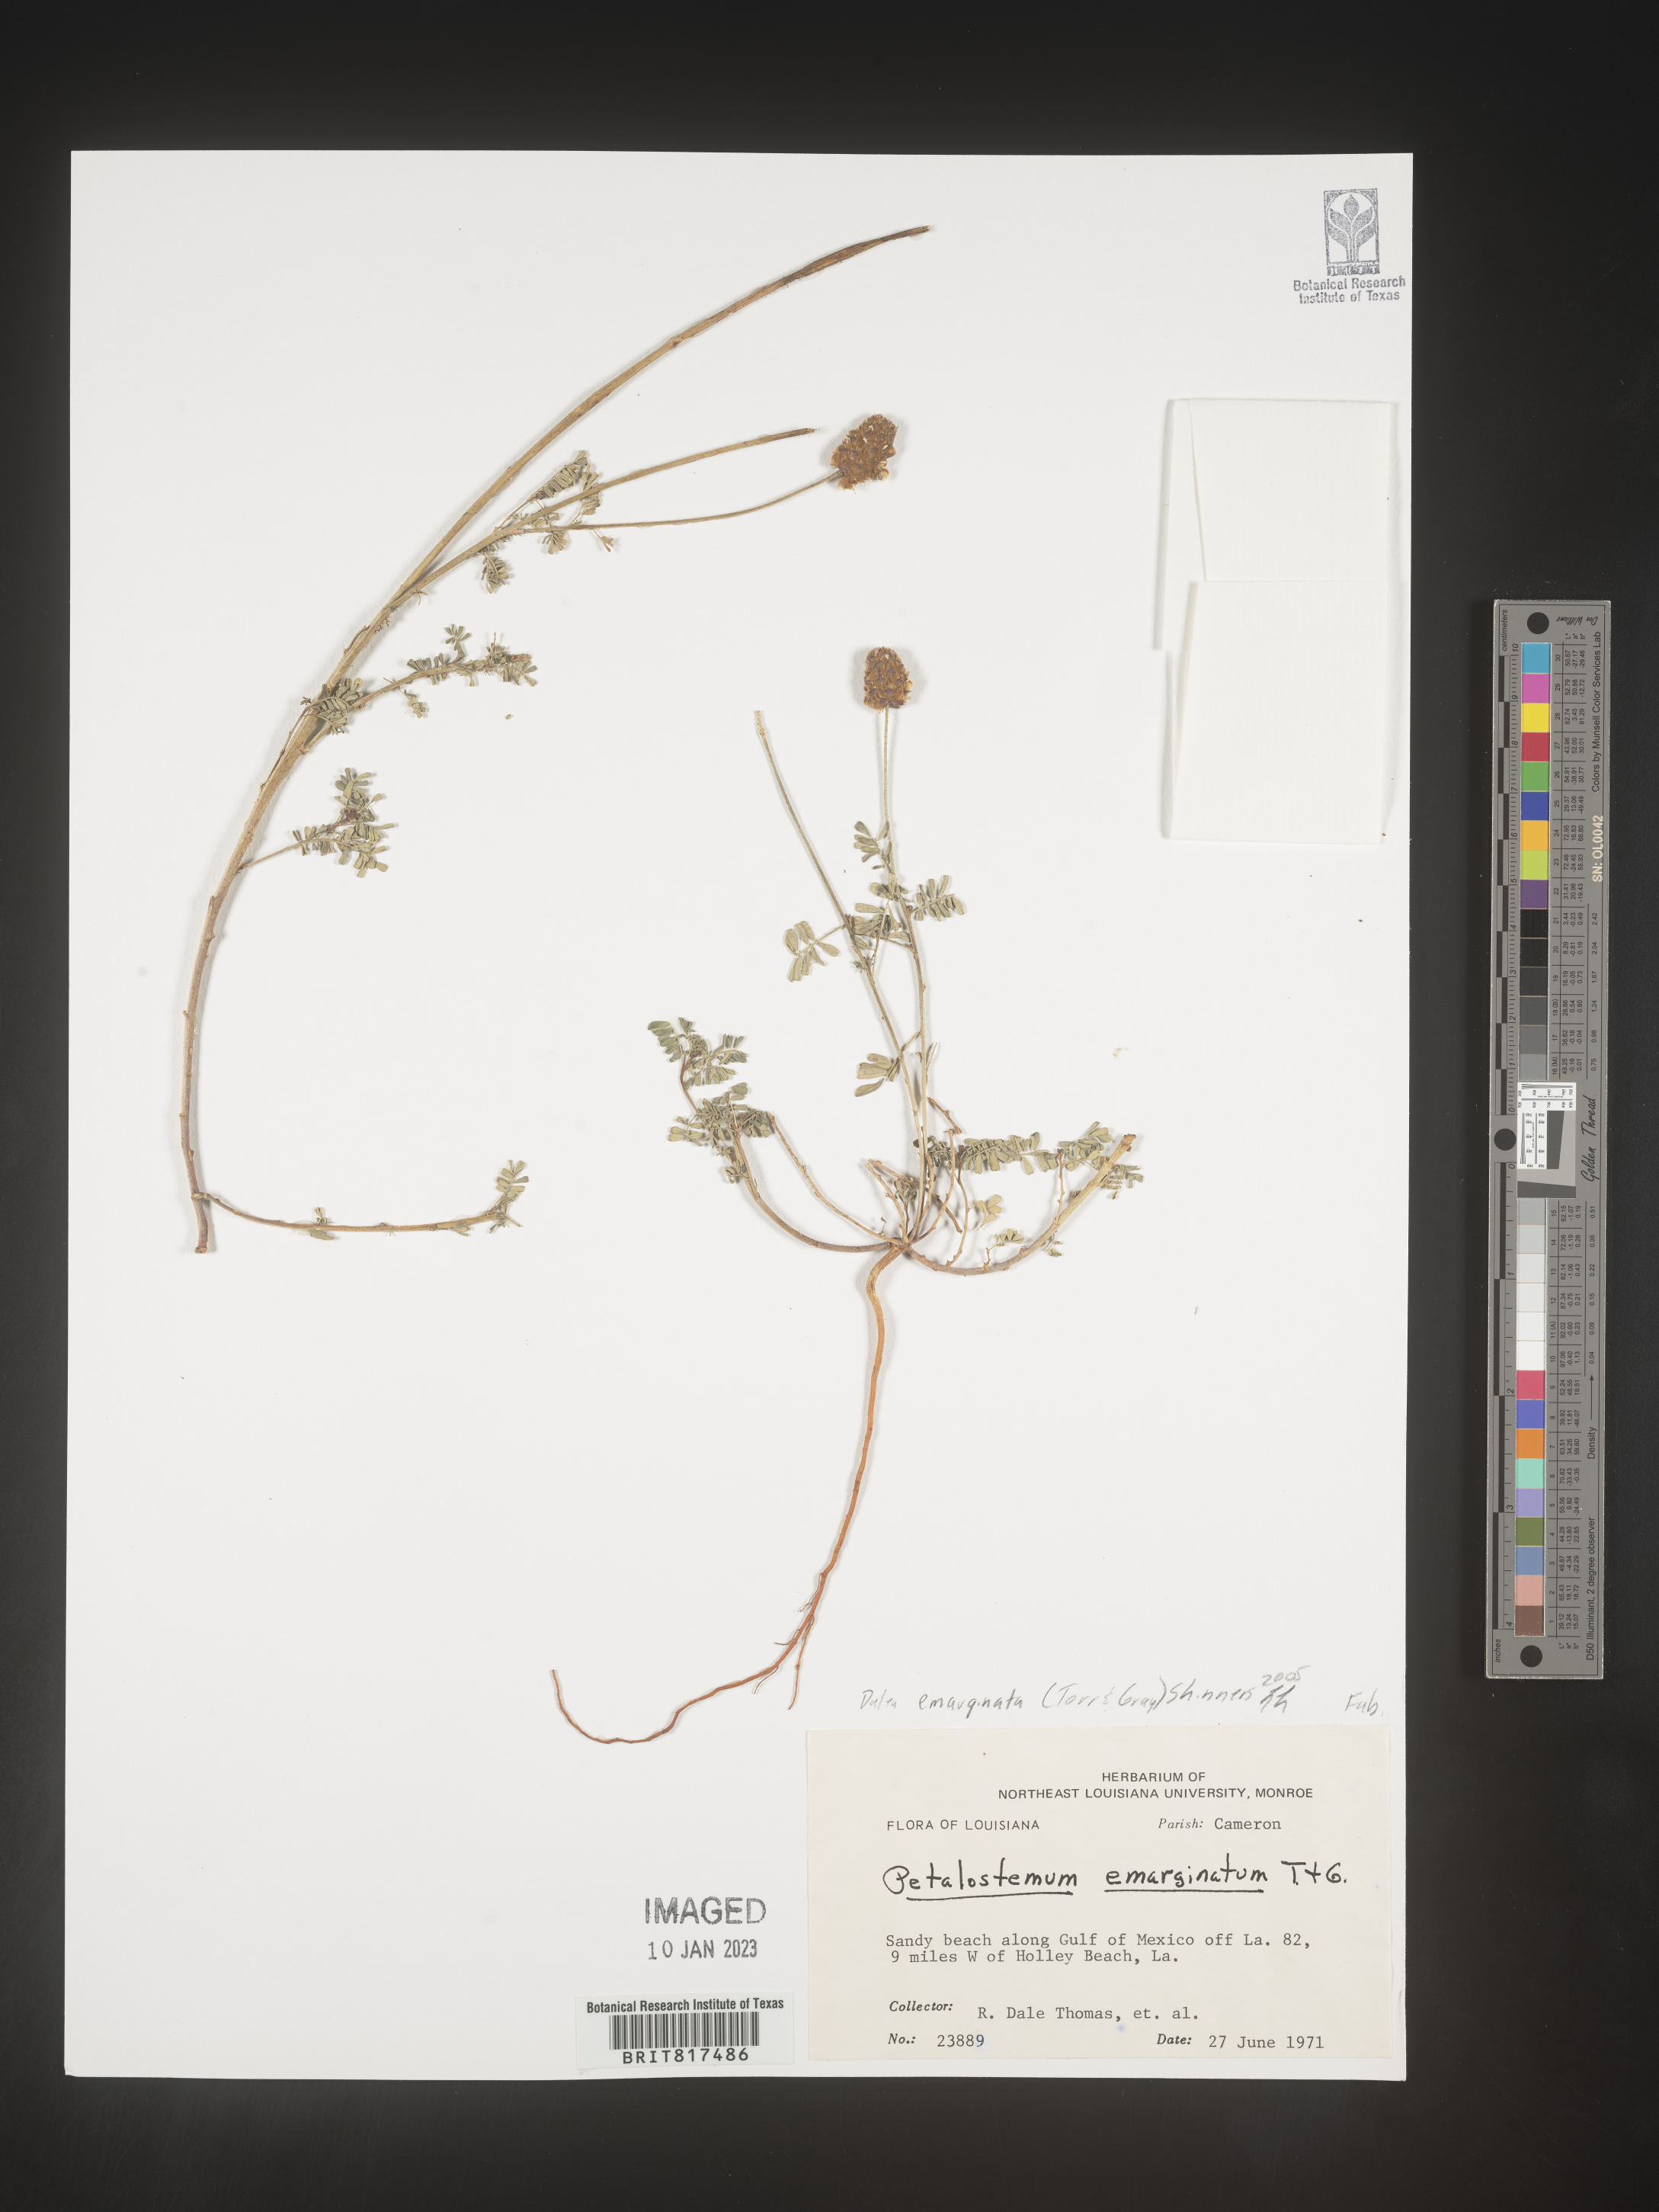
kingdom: Plantae
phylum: Tracheophyta
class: Magnoliopsida
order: Fabales
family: Fabaceae
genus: Dalea
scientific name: Dalea
